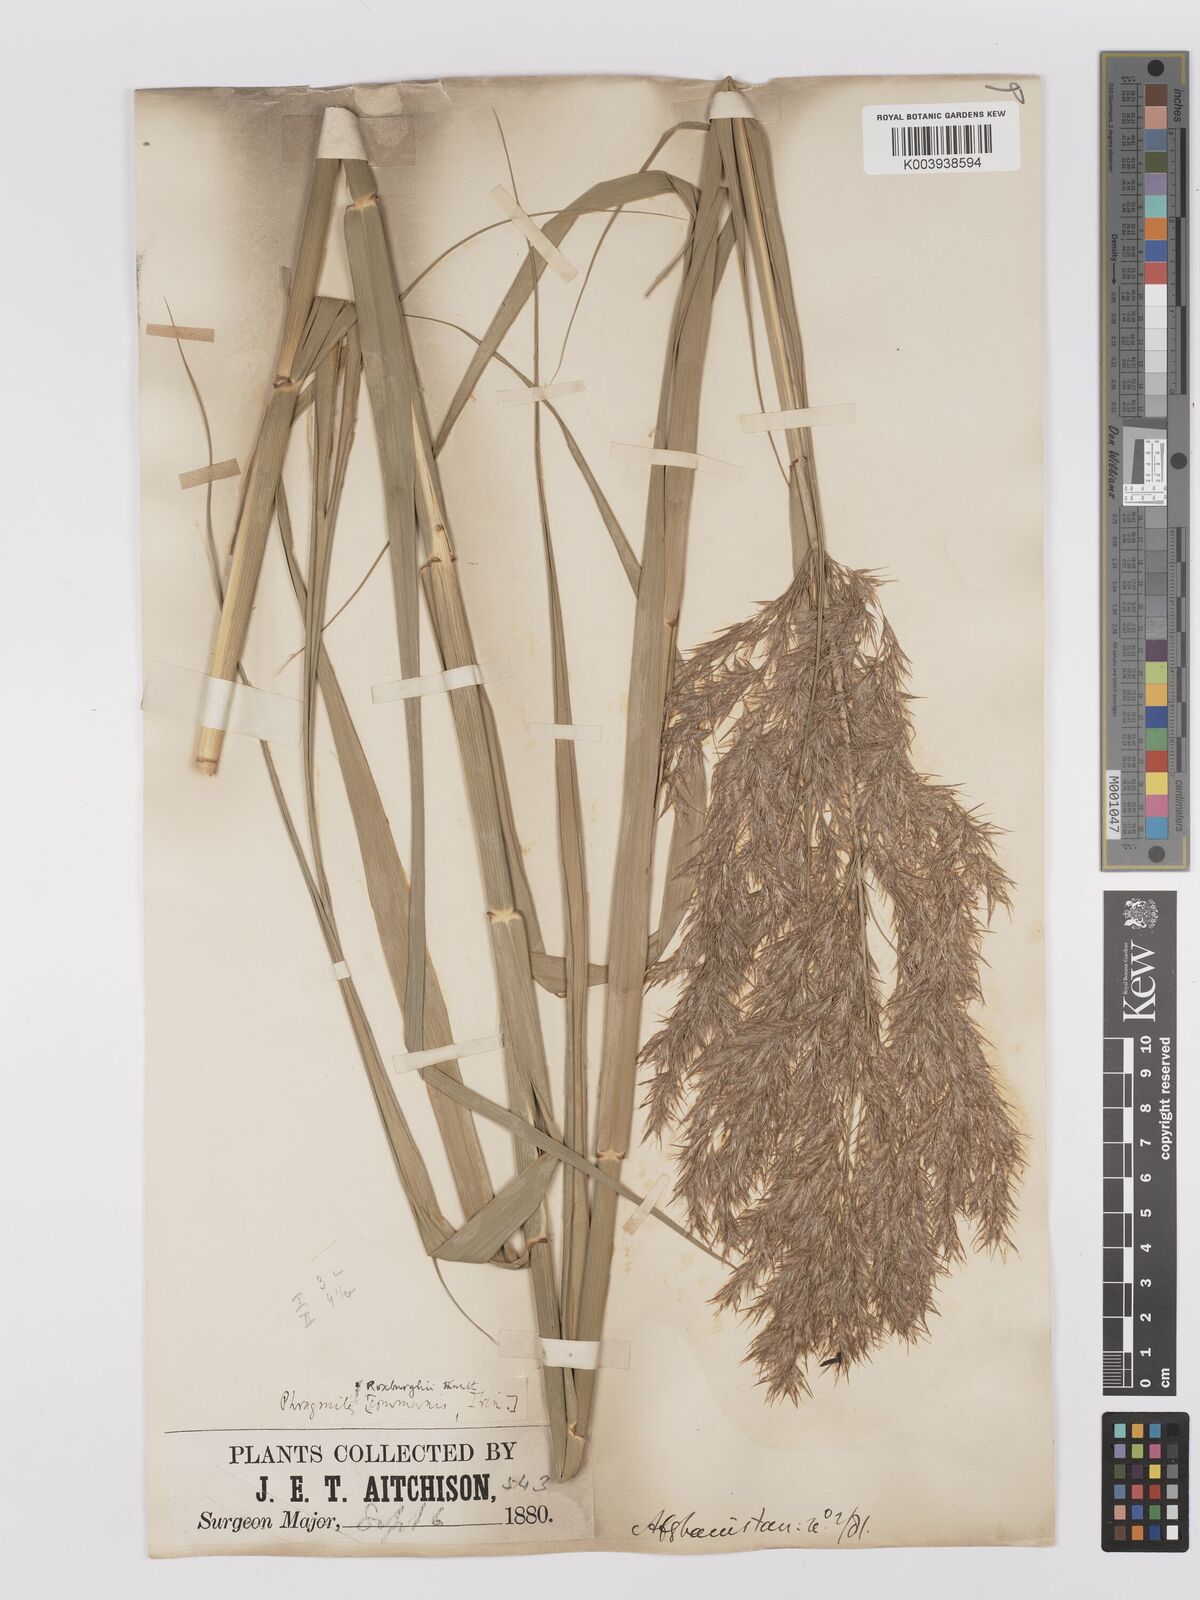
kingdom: Plantae
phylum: Tracheophyta
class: Liliopsida
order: Poales
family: Poaceae
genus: Phragmites
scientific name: Phragmites karka
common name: Tropical reed
